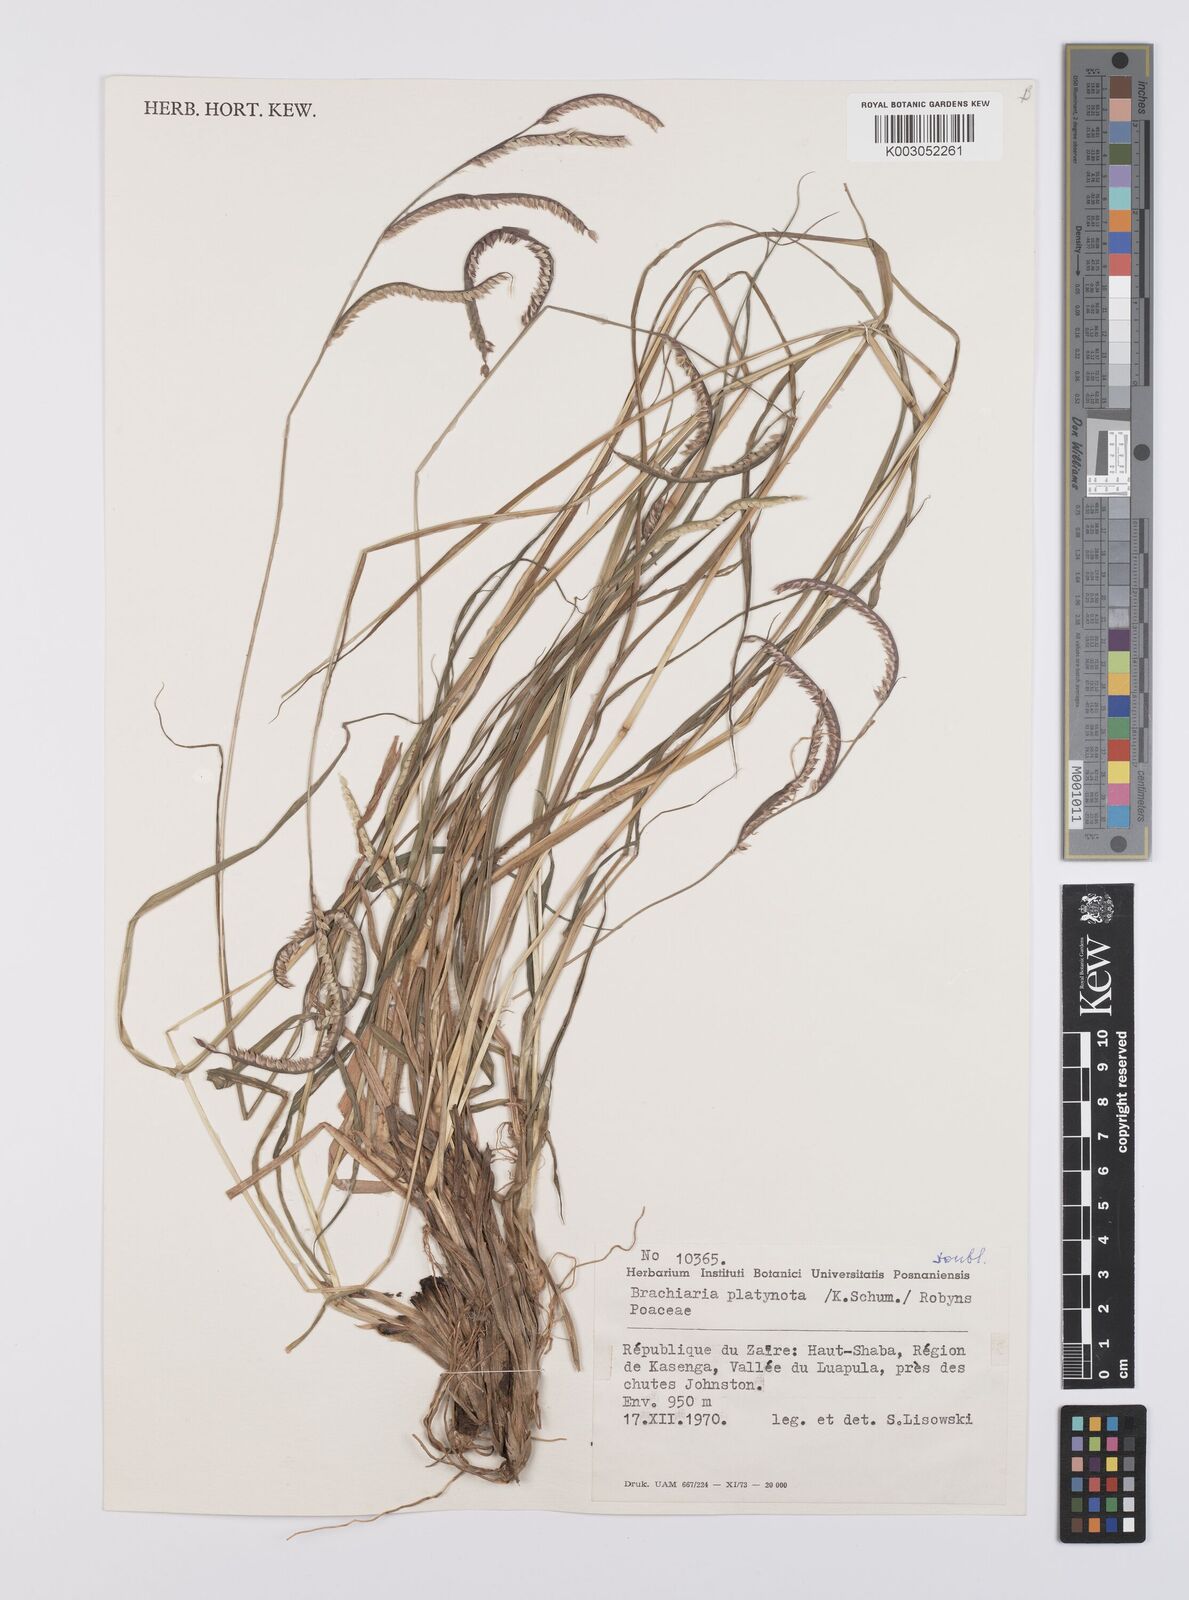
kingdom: Plantae
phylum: Tracheophyta
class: Liliopsida
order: Poales
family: Poaceae
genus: Urochloa
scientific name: Urochloa platynota
